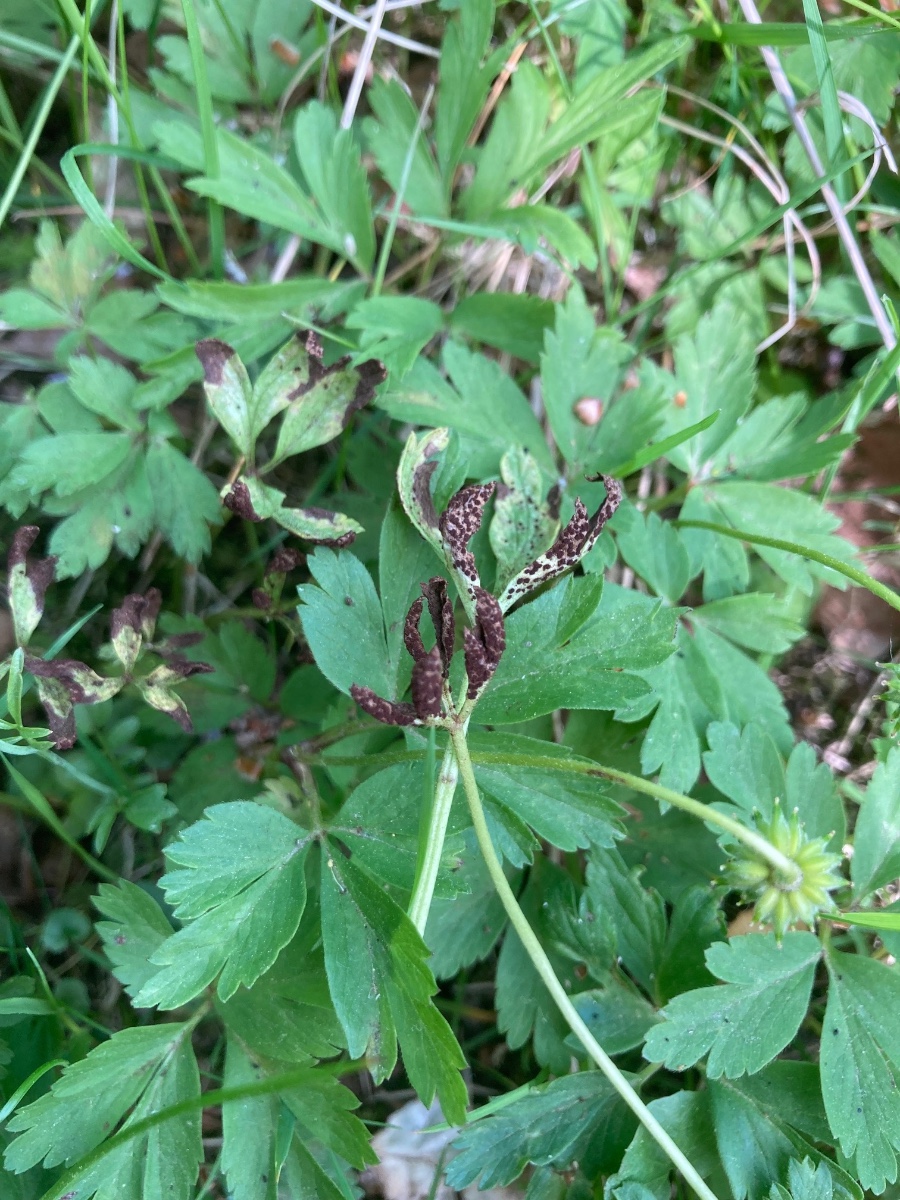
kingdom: Fungi
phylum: Basidiomycota
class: Pucciniomycetes
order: Pucciniales
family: Tranzscheliaceae
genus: Tranzschelia
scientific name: Tranzschelia anemones
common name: anemone-knæksporerust
